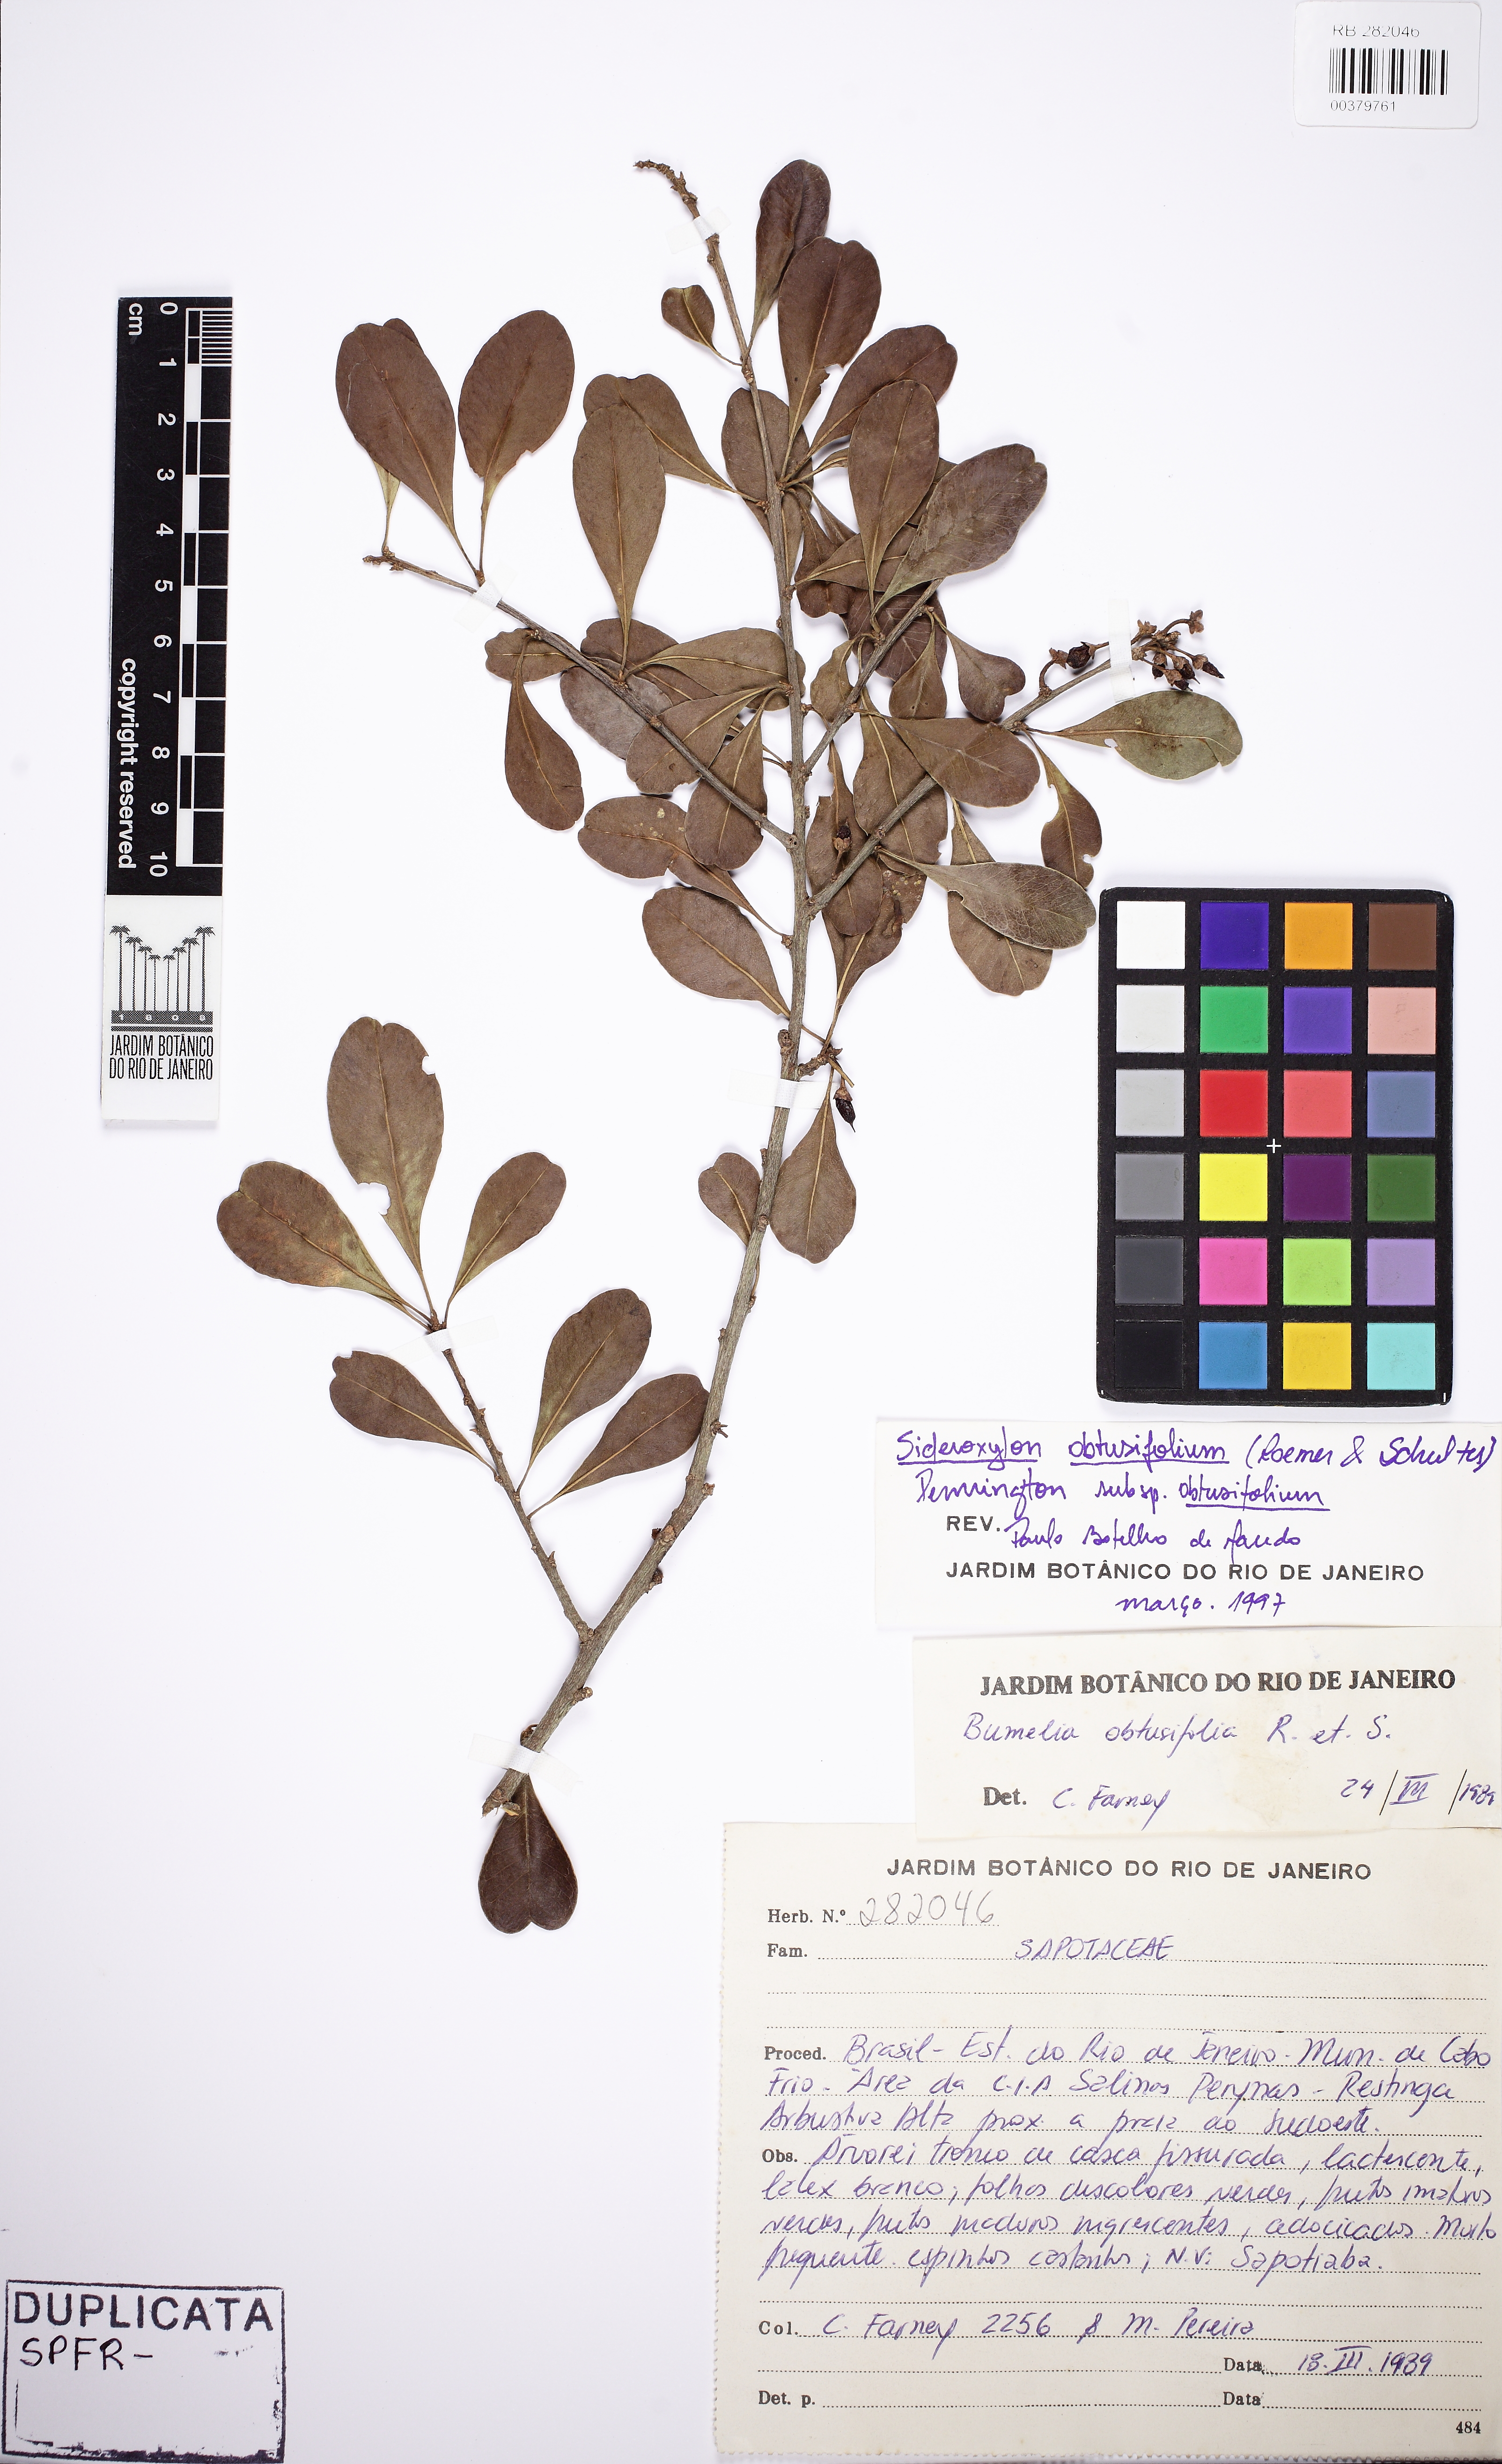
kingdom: Plantae
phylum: Tracheophyta
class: Magnoliopsida
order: Ericales
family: Sapotaceae
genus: Sideroxylon
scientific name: Sideroxylon obtusifolium
